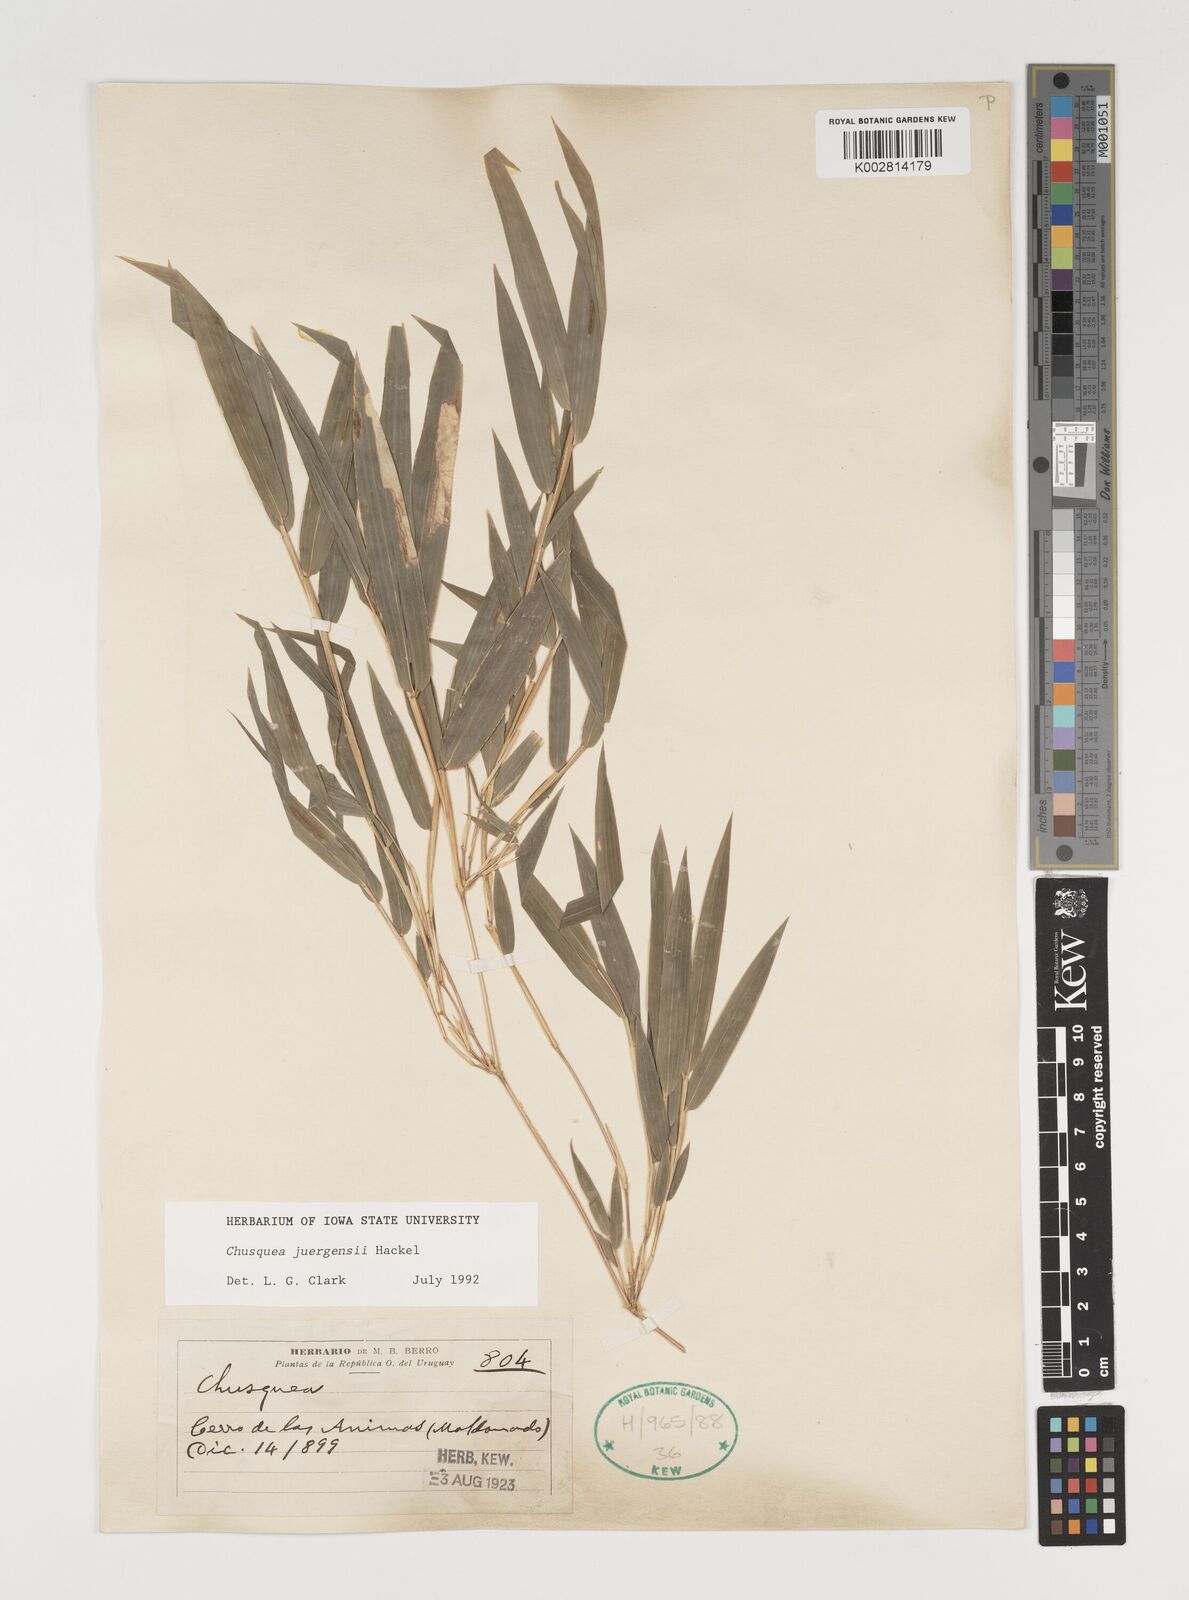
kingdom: Plantae
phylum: Tracheophyta
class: Liliopsida
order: Poales
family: Poaceae
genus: Chusquea
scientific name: Chusquea juergensii
